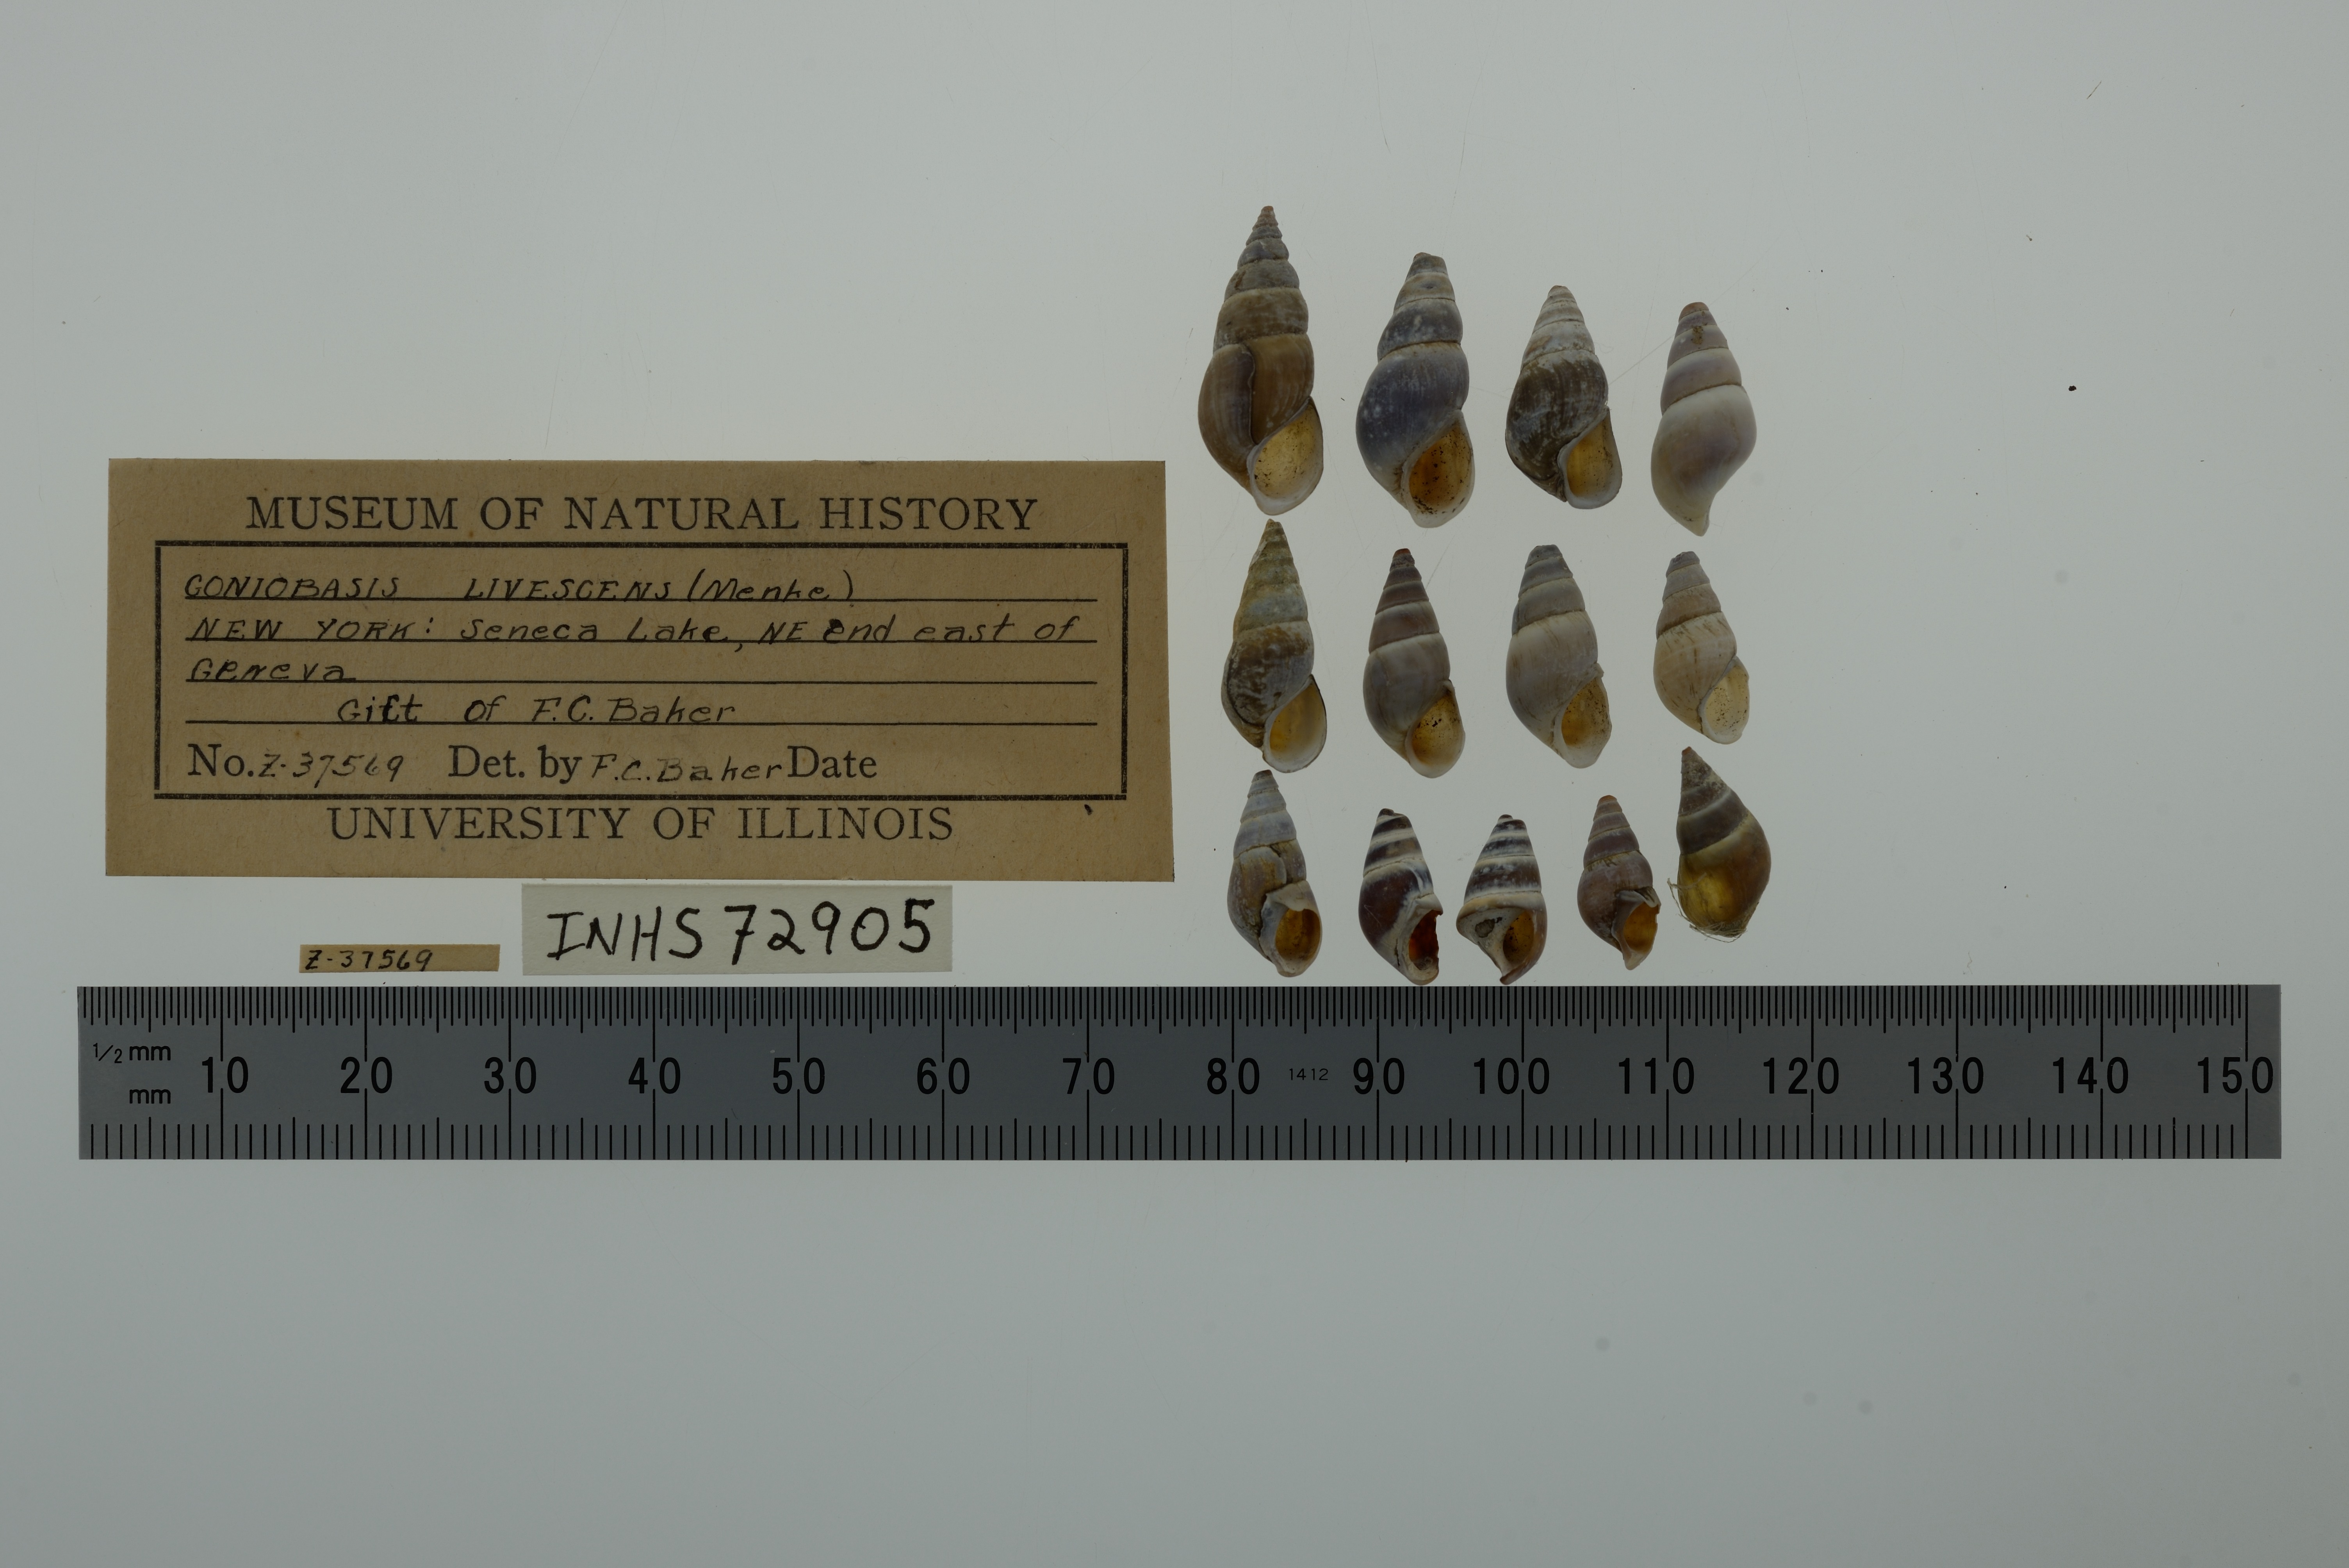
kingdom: Animalia
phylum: Mollusca
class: Gastropoda
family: Pleuroceridae
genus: Elimia
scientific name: Elimia livescens
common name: Liver elimia
